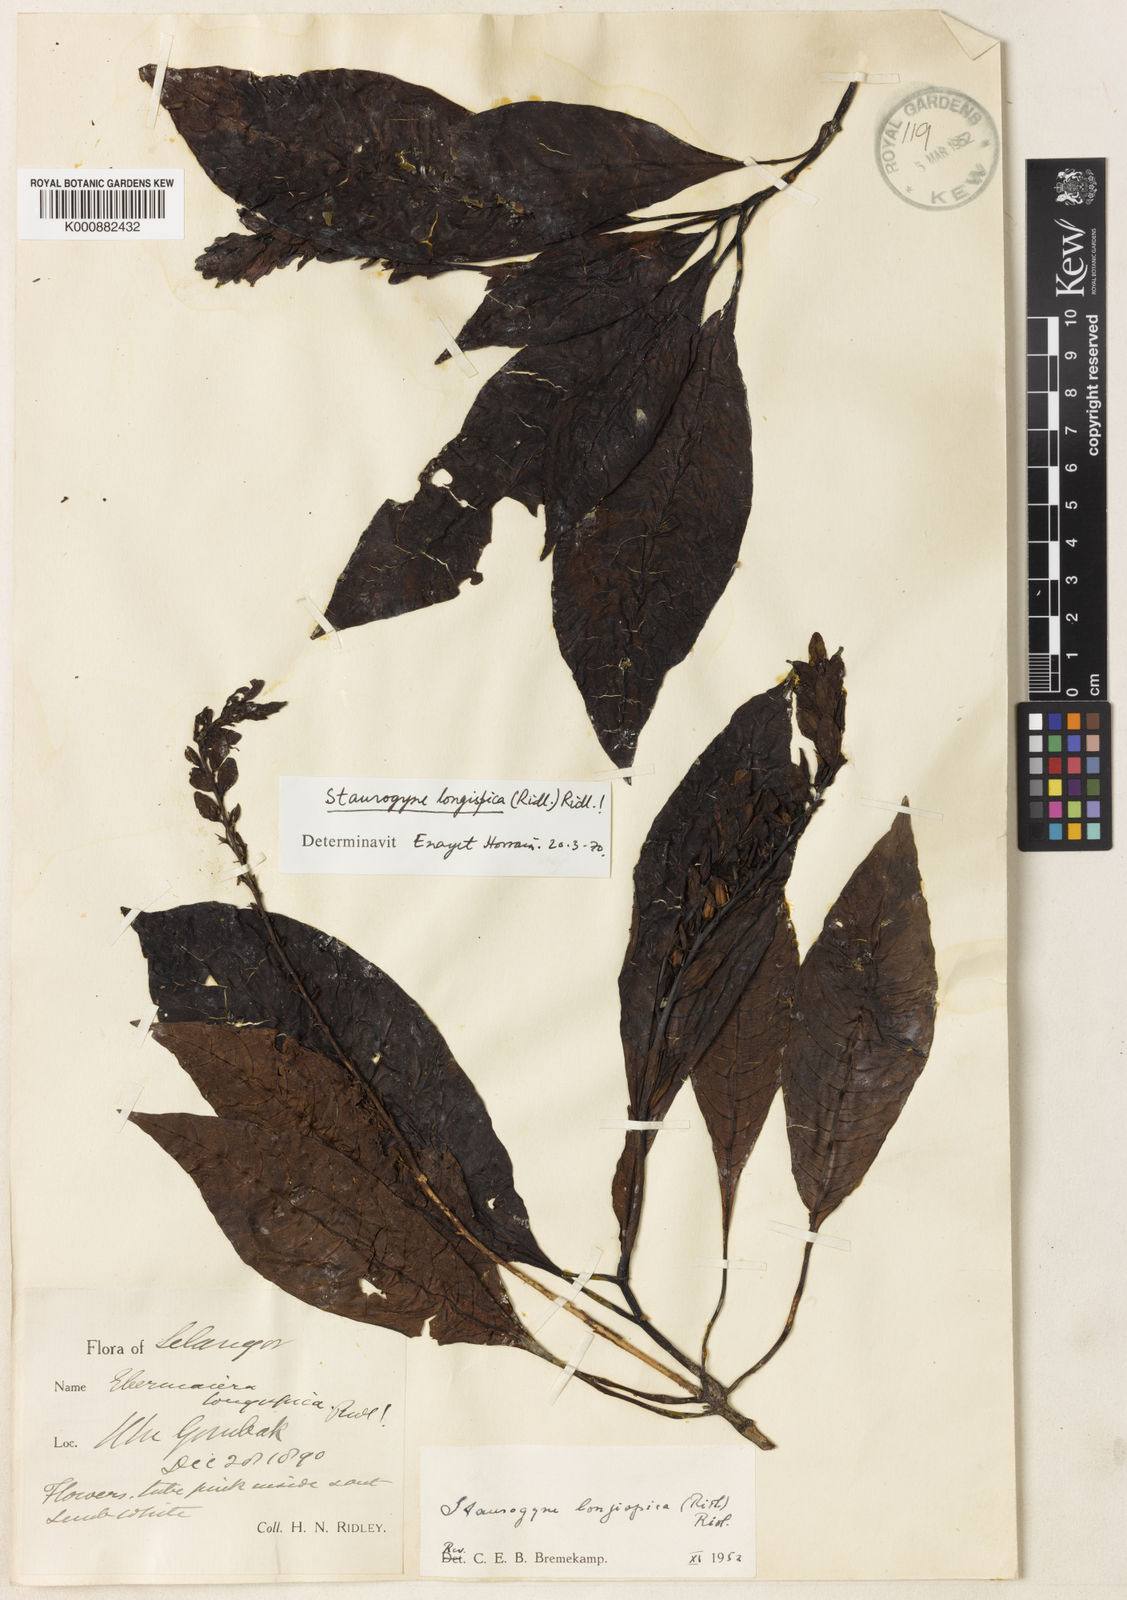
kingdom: Plantae
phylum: Tracheophyta
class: Magnoliopsida
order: Lamiales
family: Acanthaceae
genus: Staurogyne
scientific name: Staurogyne
